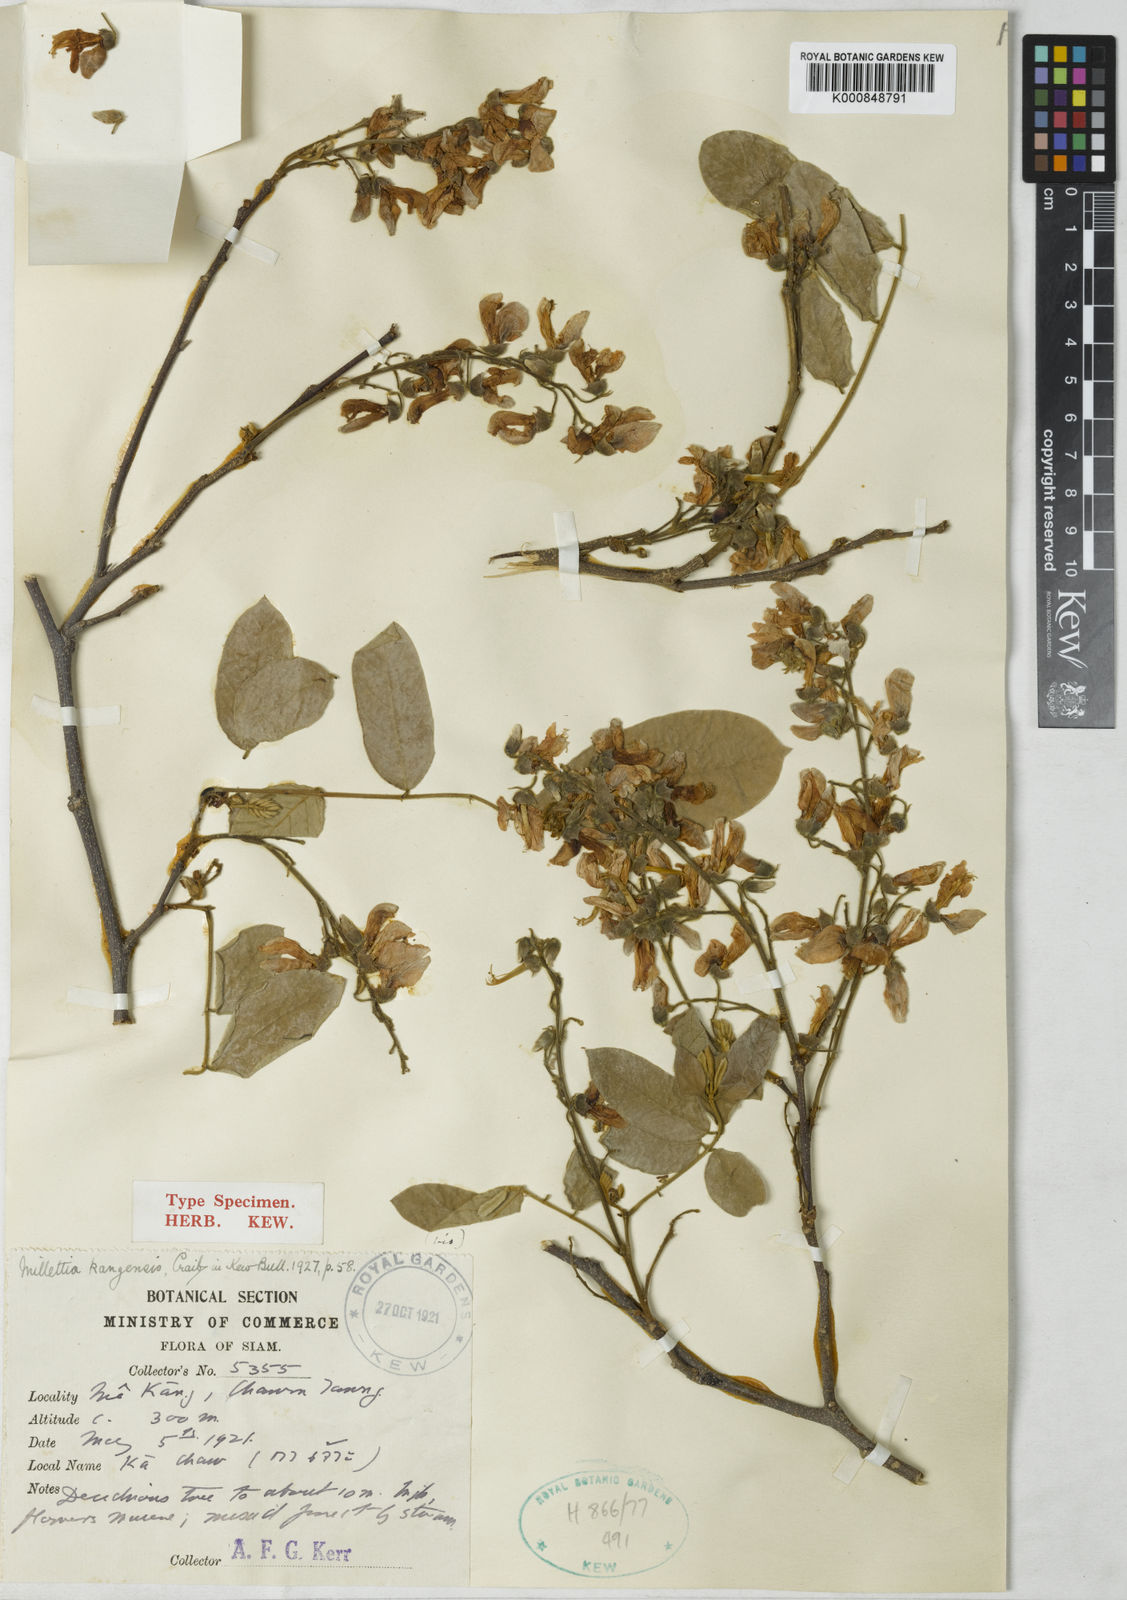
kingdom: Plantae
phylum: Tracheophyta
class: Magnoliopsida
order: Fabales
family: Fabaceae
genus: Millettia
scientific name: Millettia kangensis
